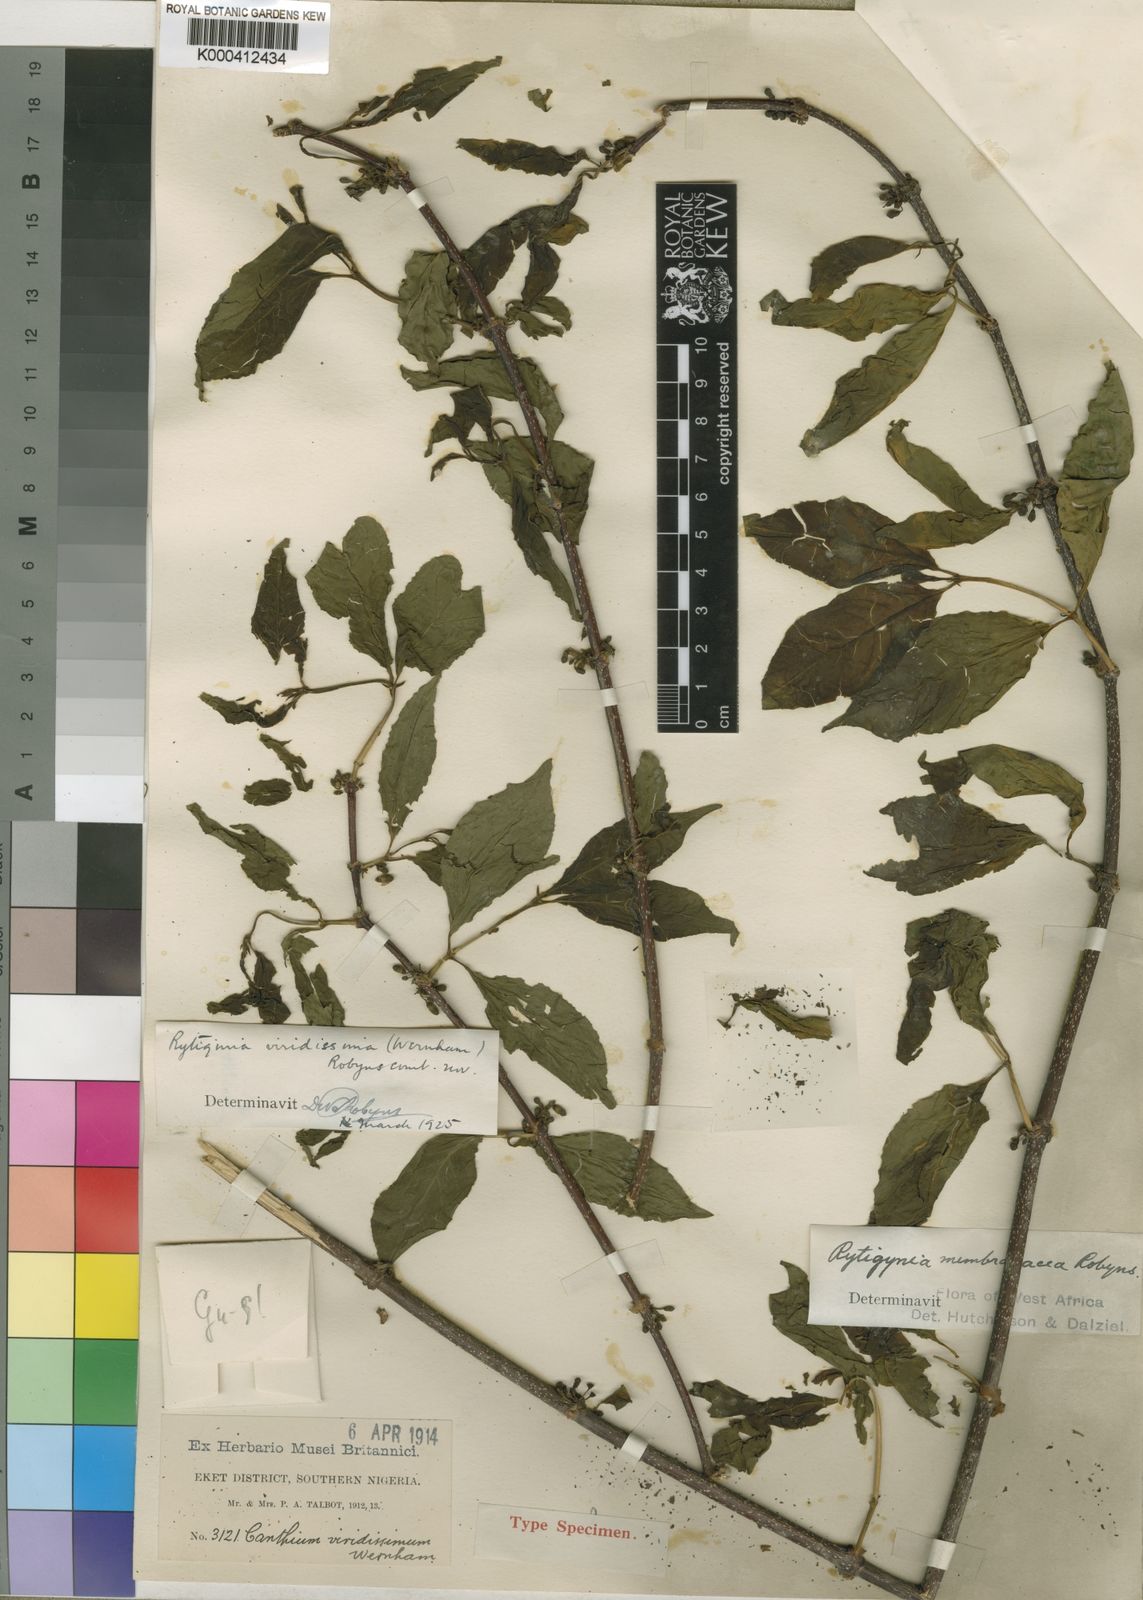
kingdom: Plantae
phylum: Tracheophyta
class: Magnoliopsida
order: Gentianales
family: Rubiaceae
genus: Rytigynia
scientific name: Rytigynia membranacea
